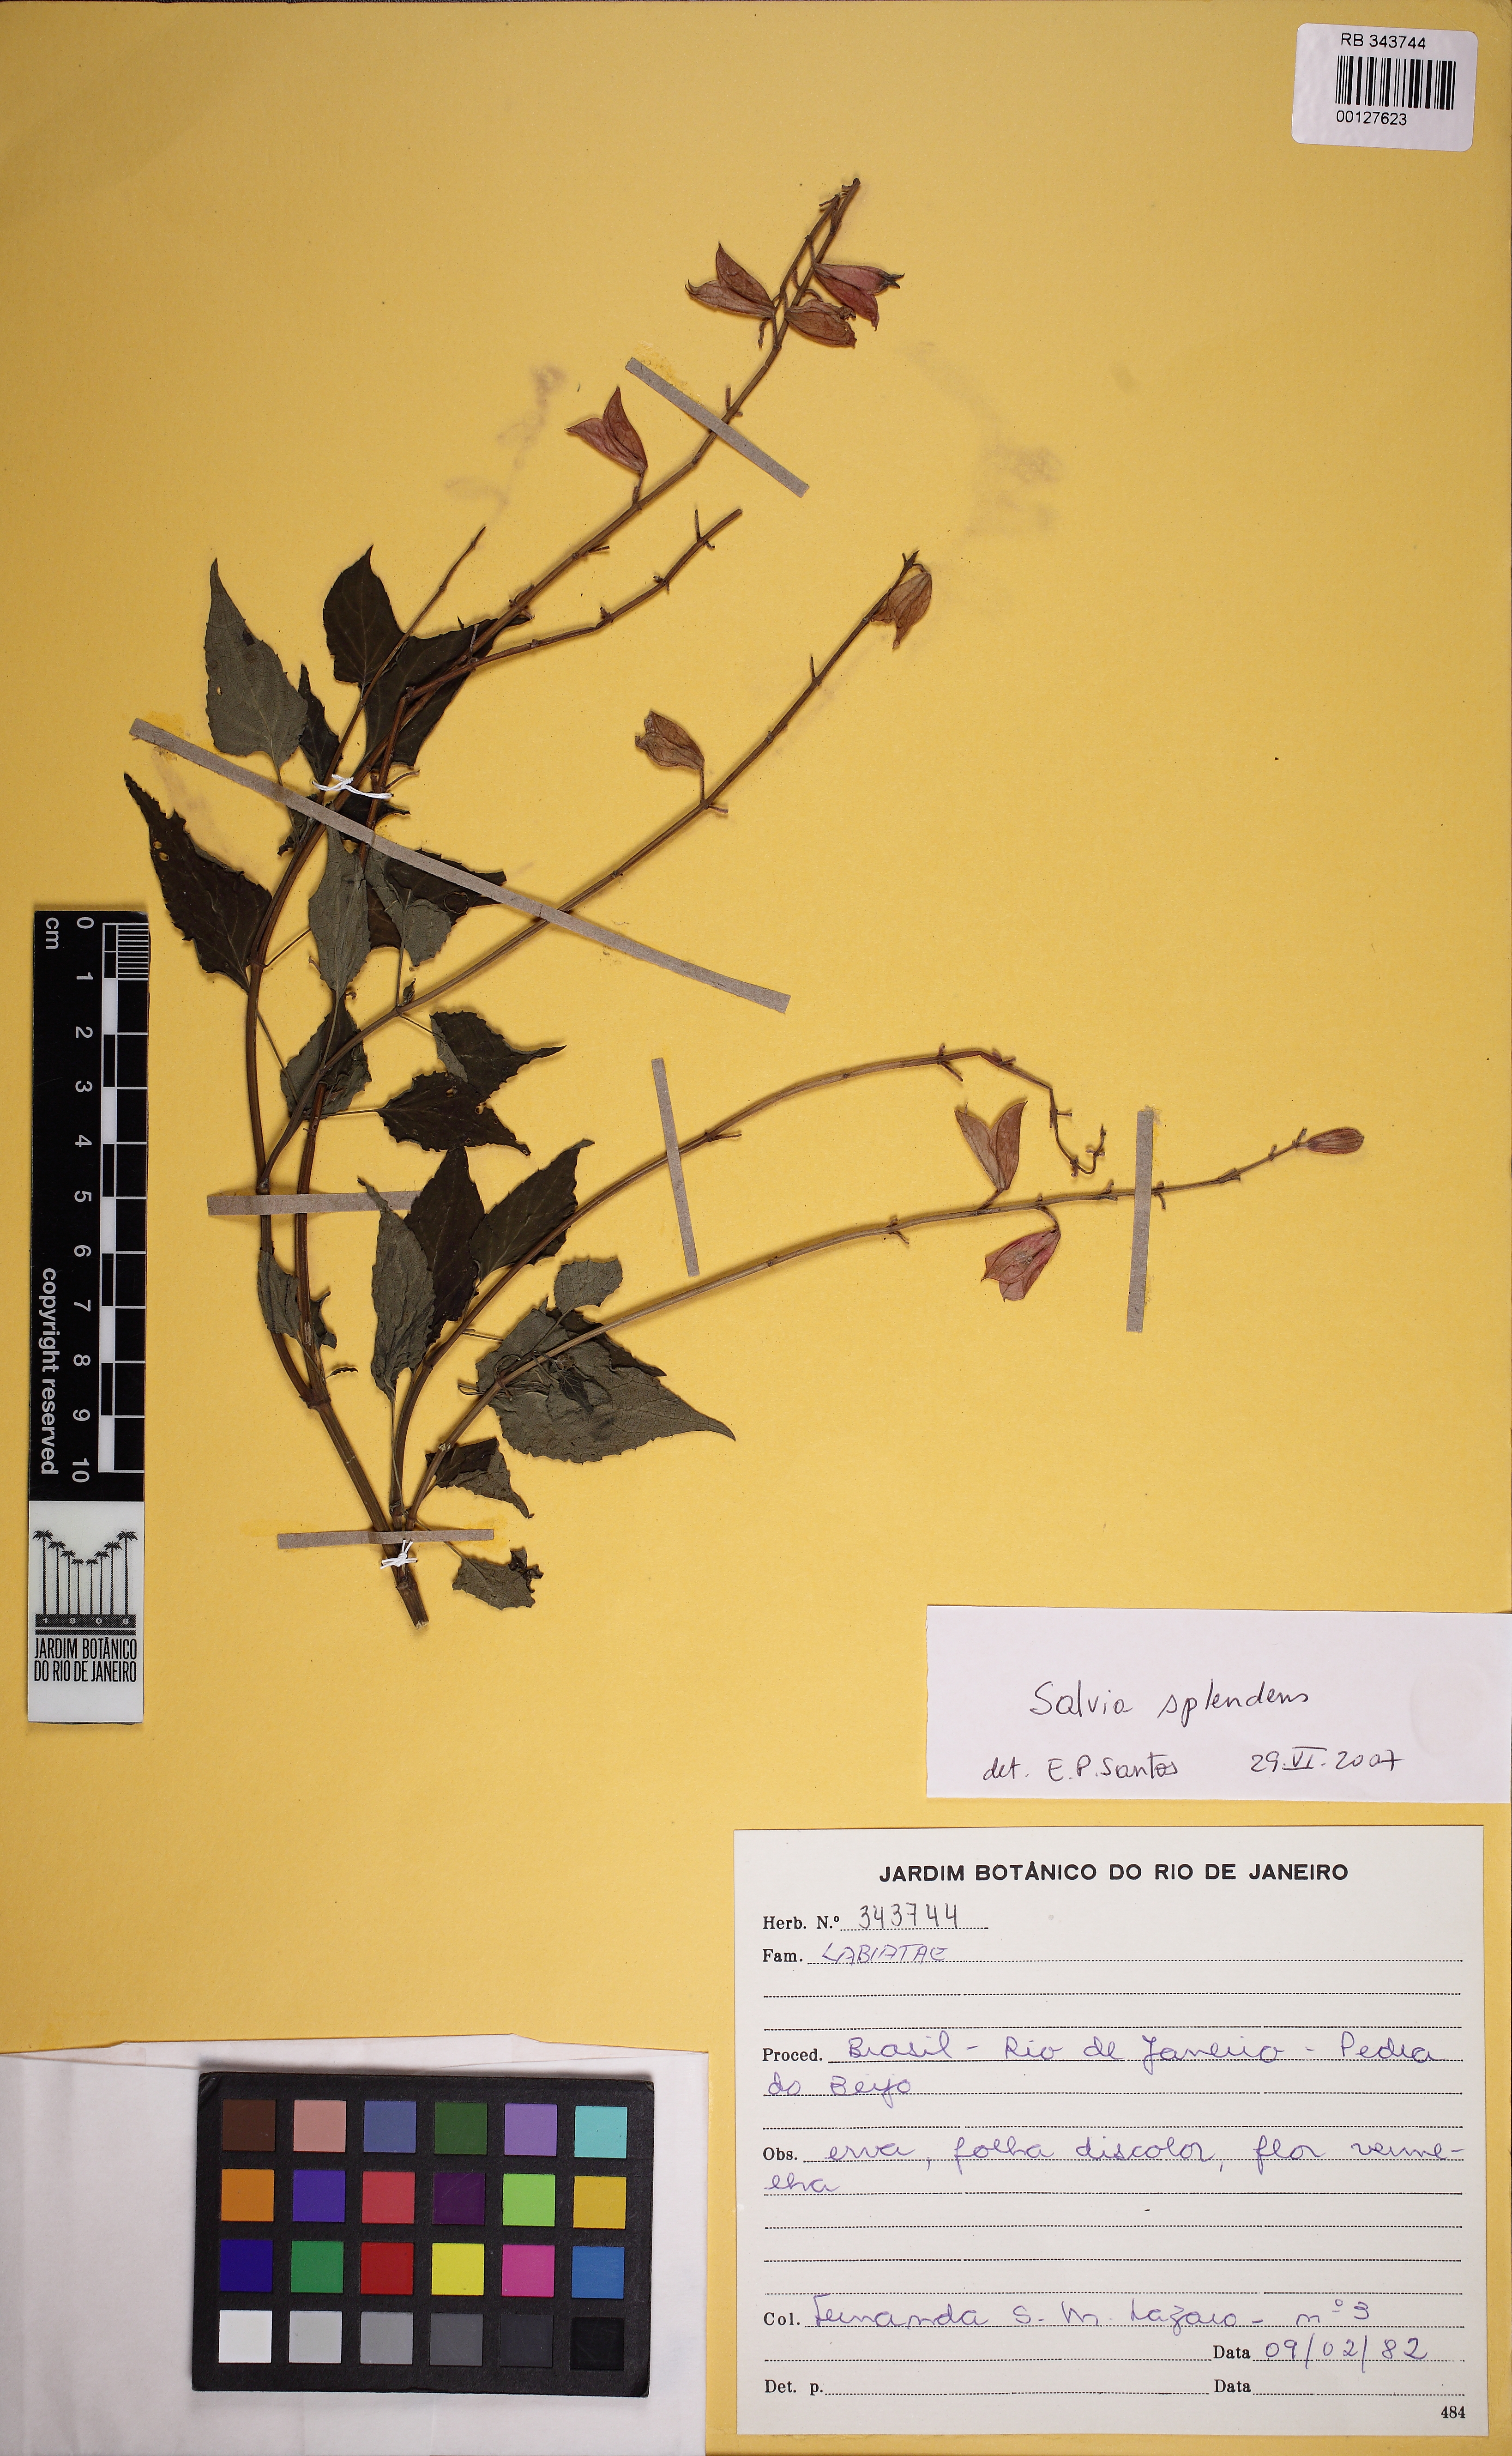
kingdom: Plantae
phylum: Tracheophyta
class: Magnoliopsida
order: Lamiales
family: Lamiaceae
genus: Salvia
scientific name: Salvia splendens
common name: Scarlet sage
